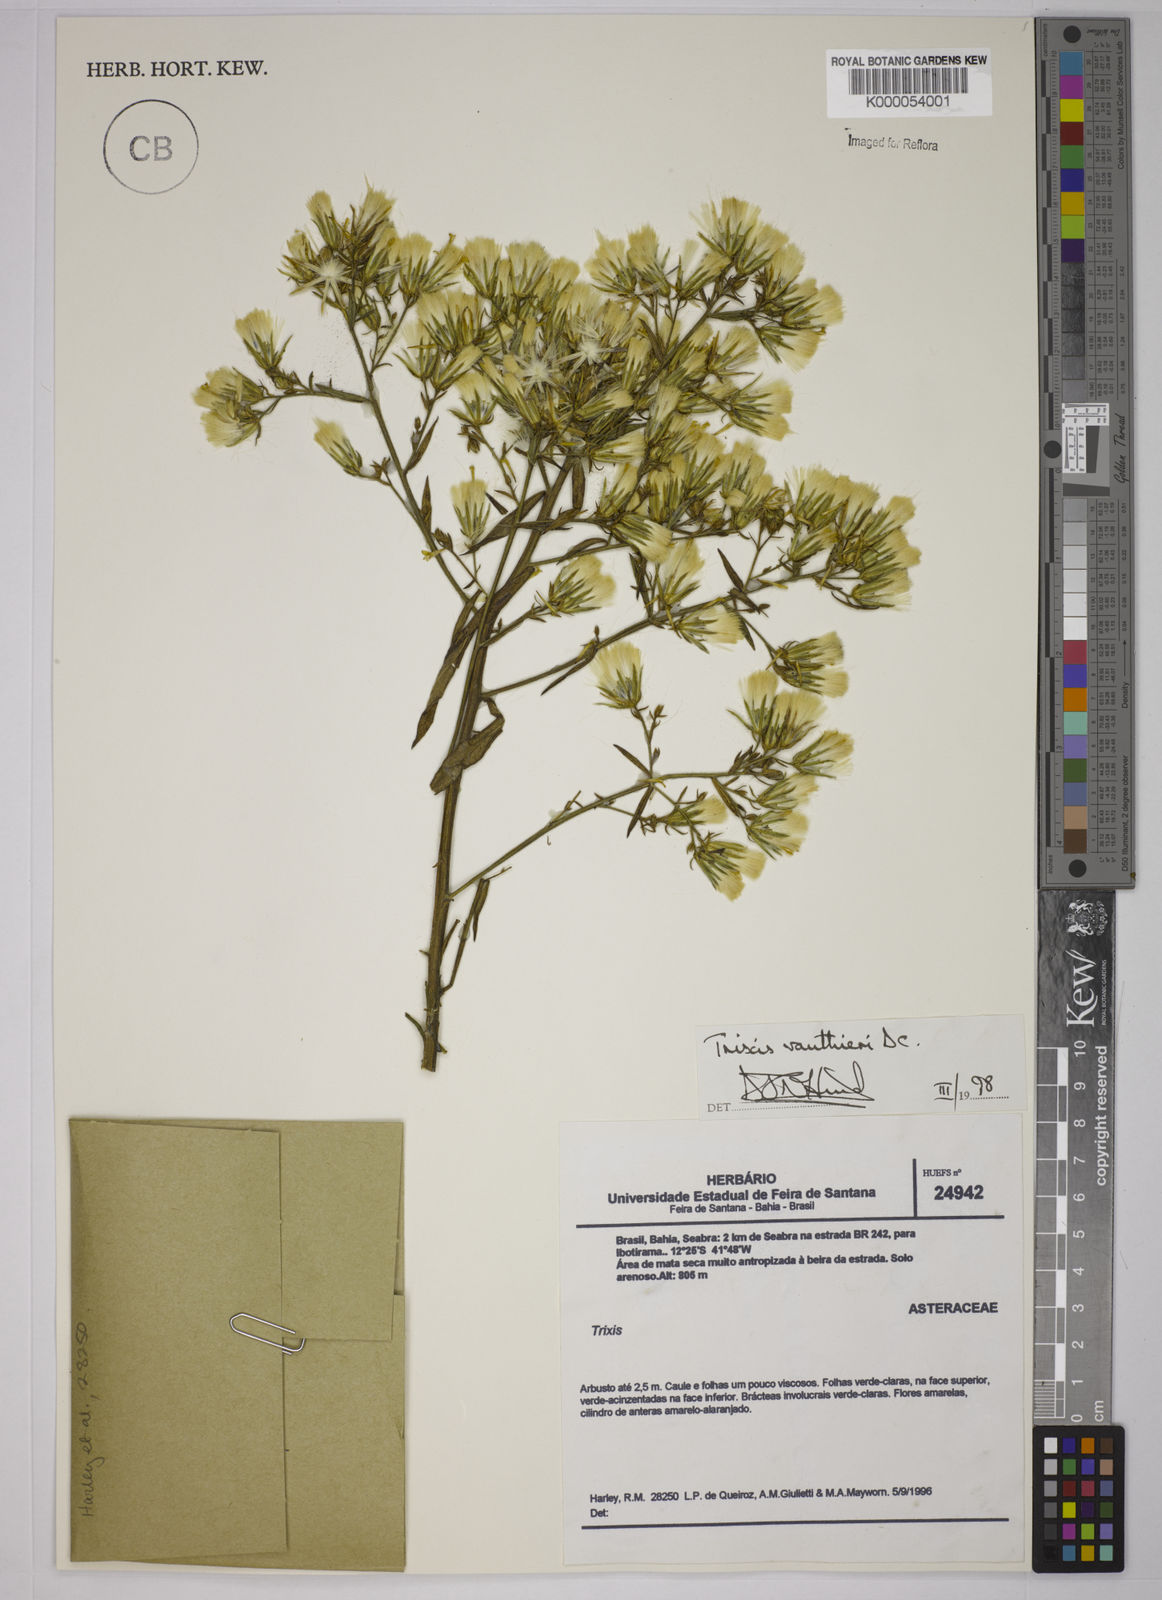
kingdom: Plantae
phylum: Tracheophyta
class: Magnoliopsida
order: Asterales
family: Asteraceae
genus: Trixis
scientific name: Trixis vauthieri
